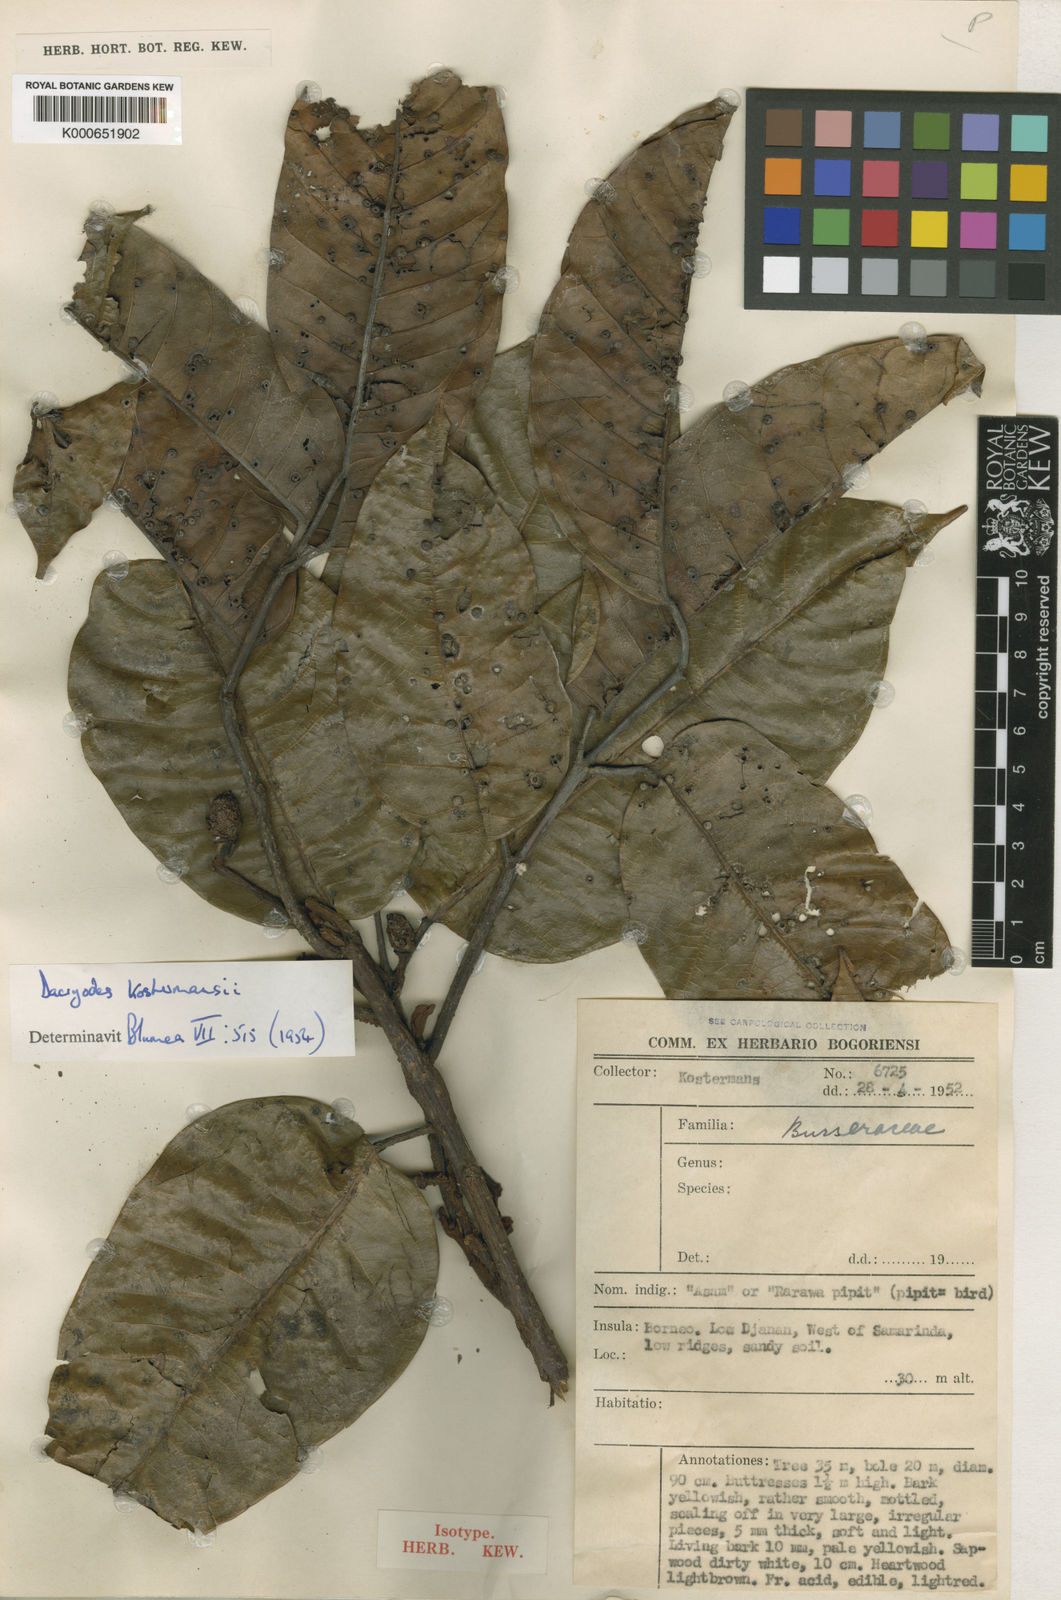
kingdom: Plantae
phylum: Tracheophyta
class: Magnoliopsida
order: Sapindales
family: Burseraceae
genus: Dacryodes
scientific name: Dacryodes macrocarpa
